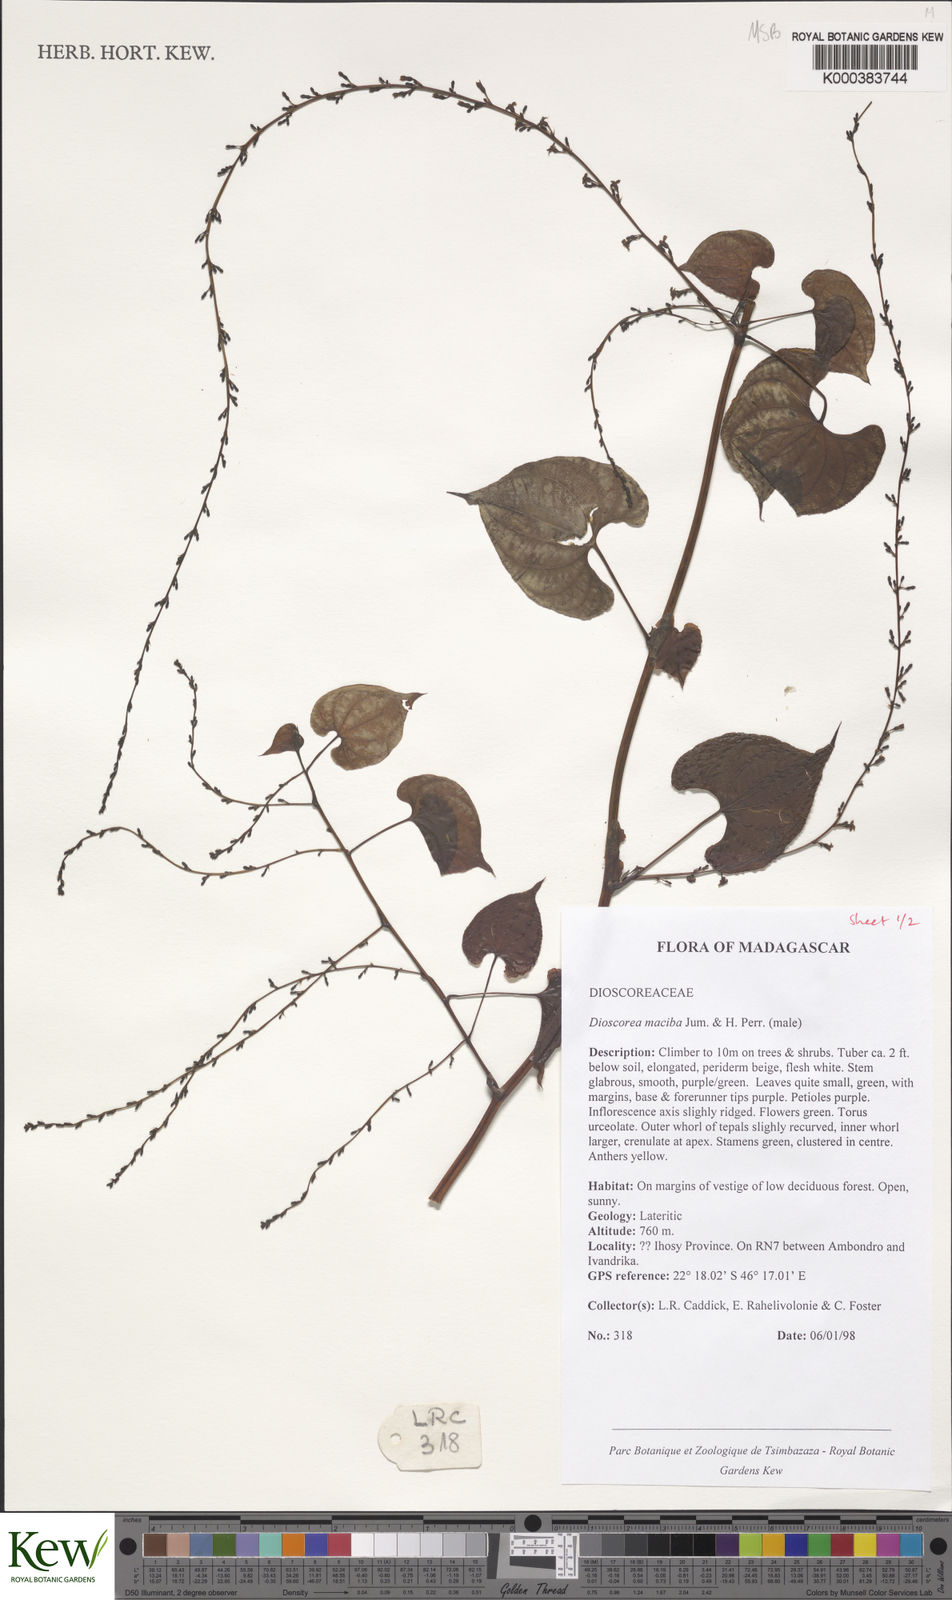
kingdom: Plantae
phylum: Tracheophyta
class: Liliopsida
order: Dioscoreales
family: Dioscoreaceae
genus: Dioscorea
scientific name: Dioscorea
